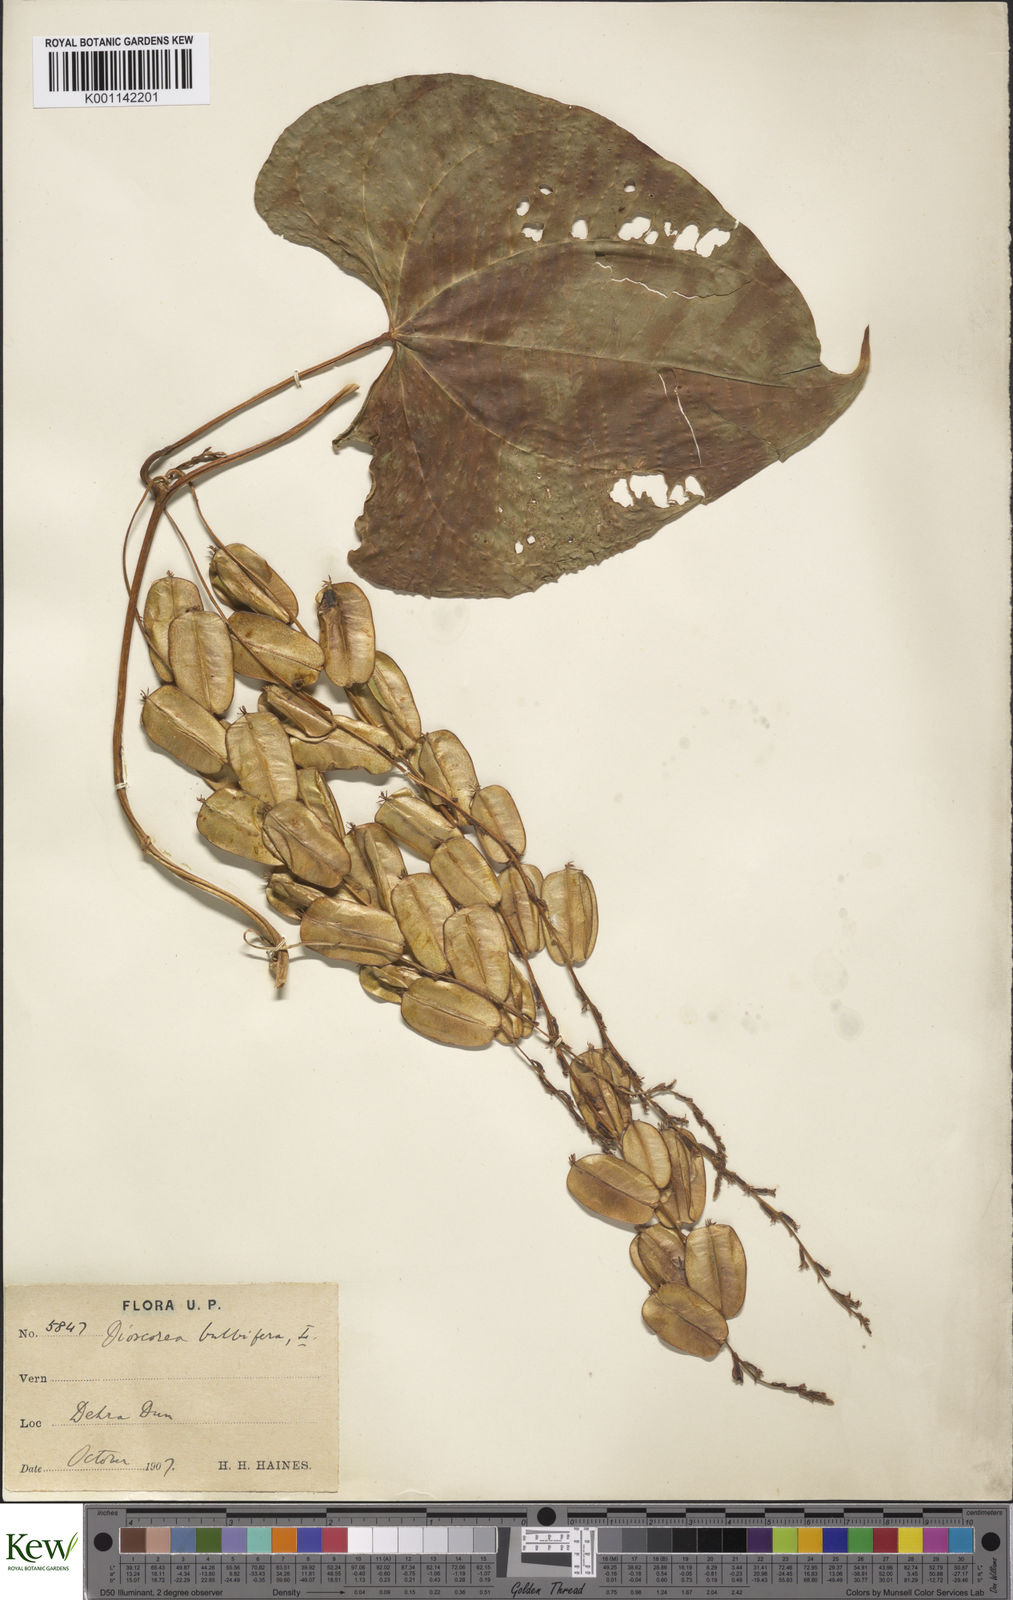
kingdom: Plantae
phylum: Tracheophyta
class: Liliopsida
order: Dioscoreales
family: Dioscoreaceae
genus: Dioscorea
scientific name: Dioscorea bulbifera
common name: Air yam
